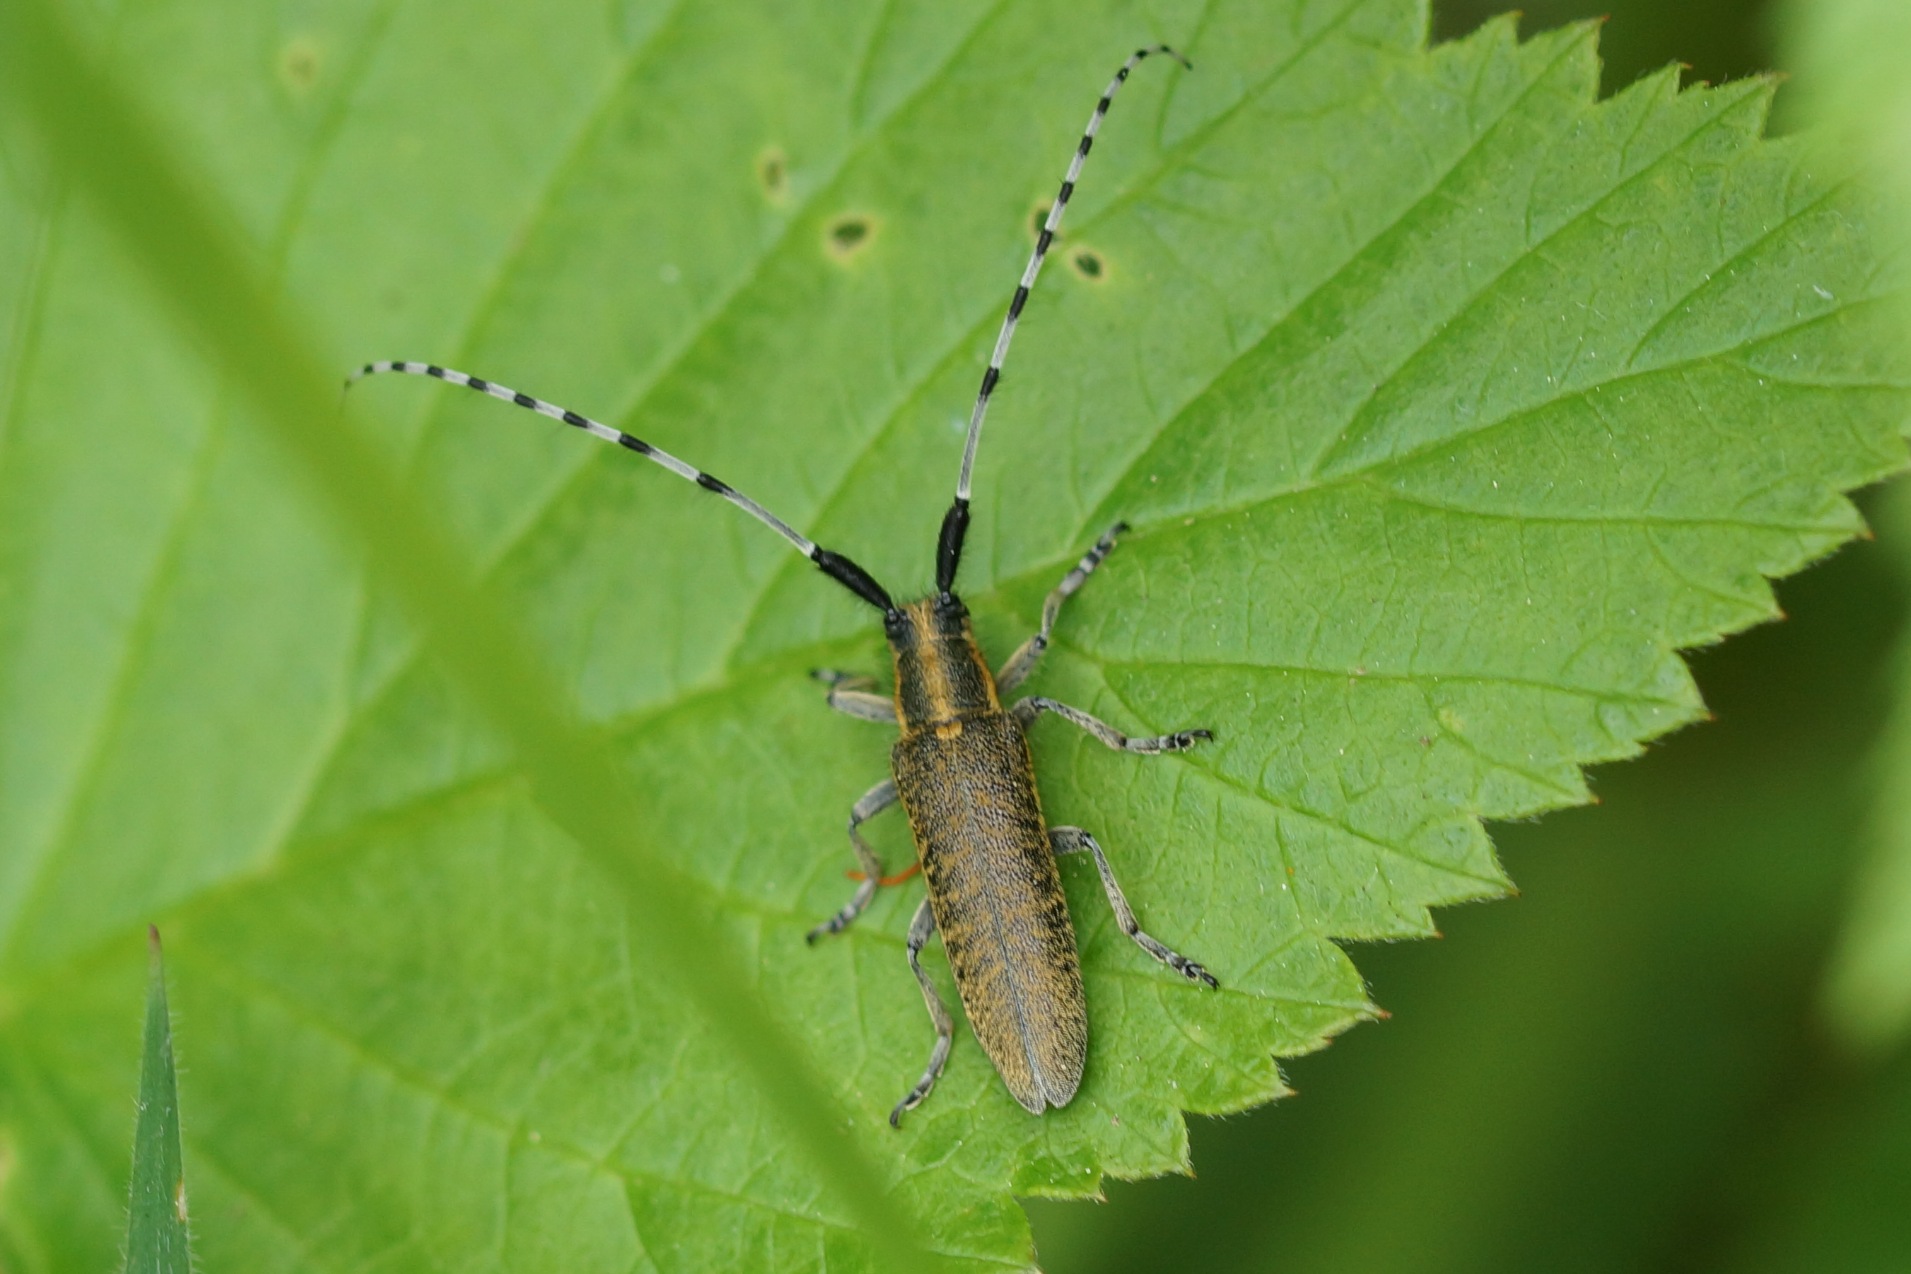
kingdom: Animalia
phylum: Arthropoda
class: Insecta
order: Coleoptera
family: Cerambycidae
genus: Agapanthia
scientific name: Agapanthia villosoviridescens
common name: Tidselbuk
